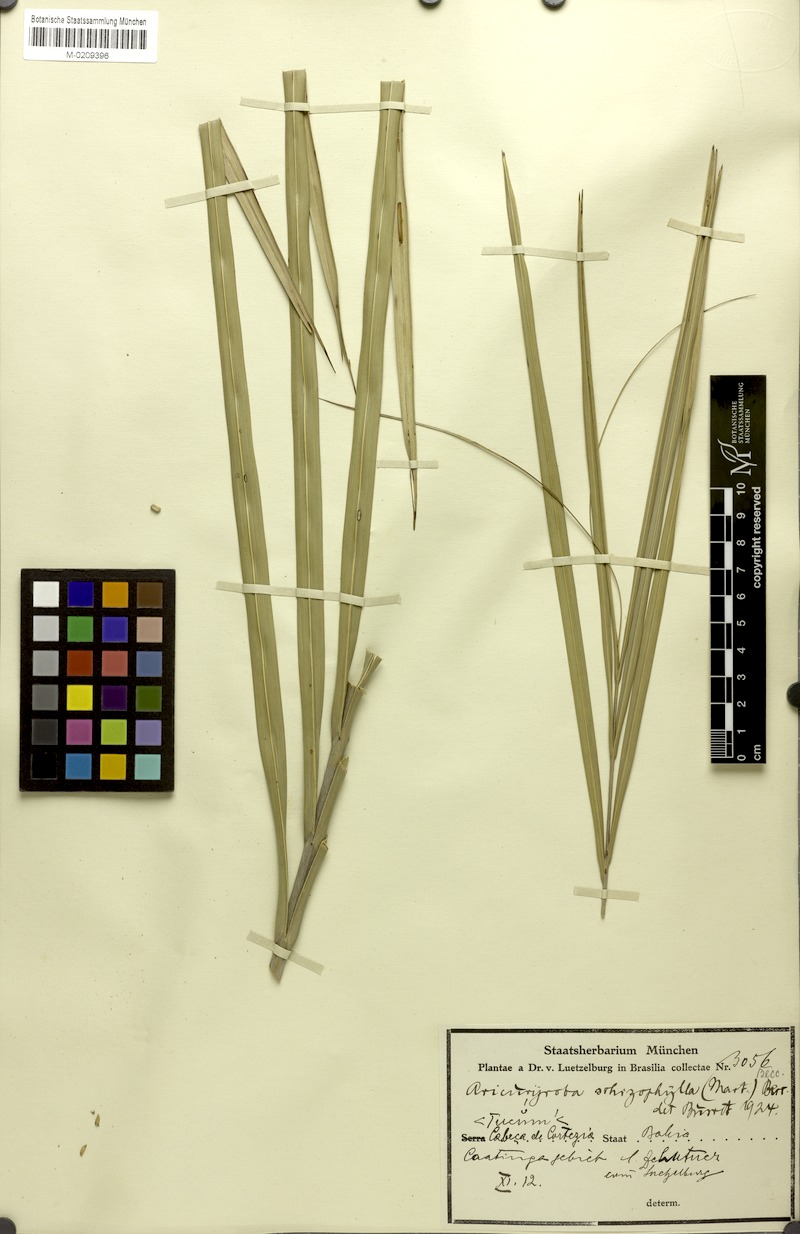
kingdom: Plantae
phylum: Tracheophyta
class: Liliopsida
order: Arecales
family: Arecaceae
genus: Syagrus
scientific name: Syagrus schizophylla
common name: Arikury palm
